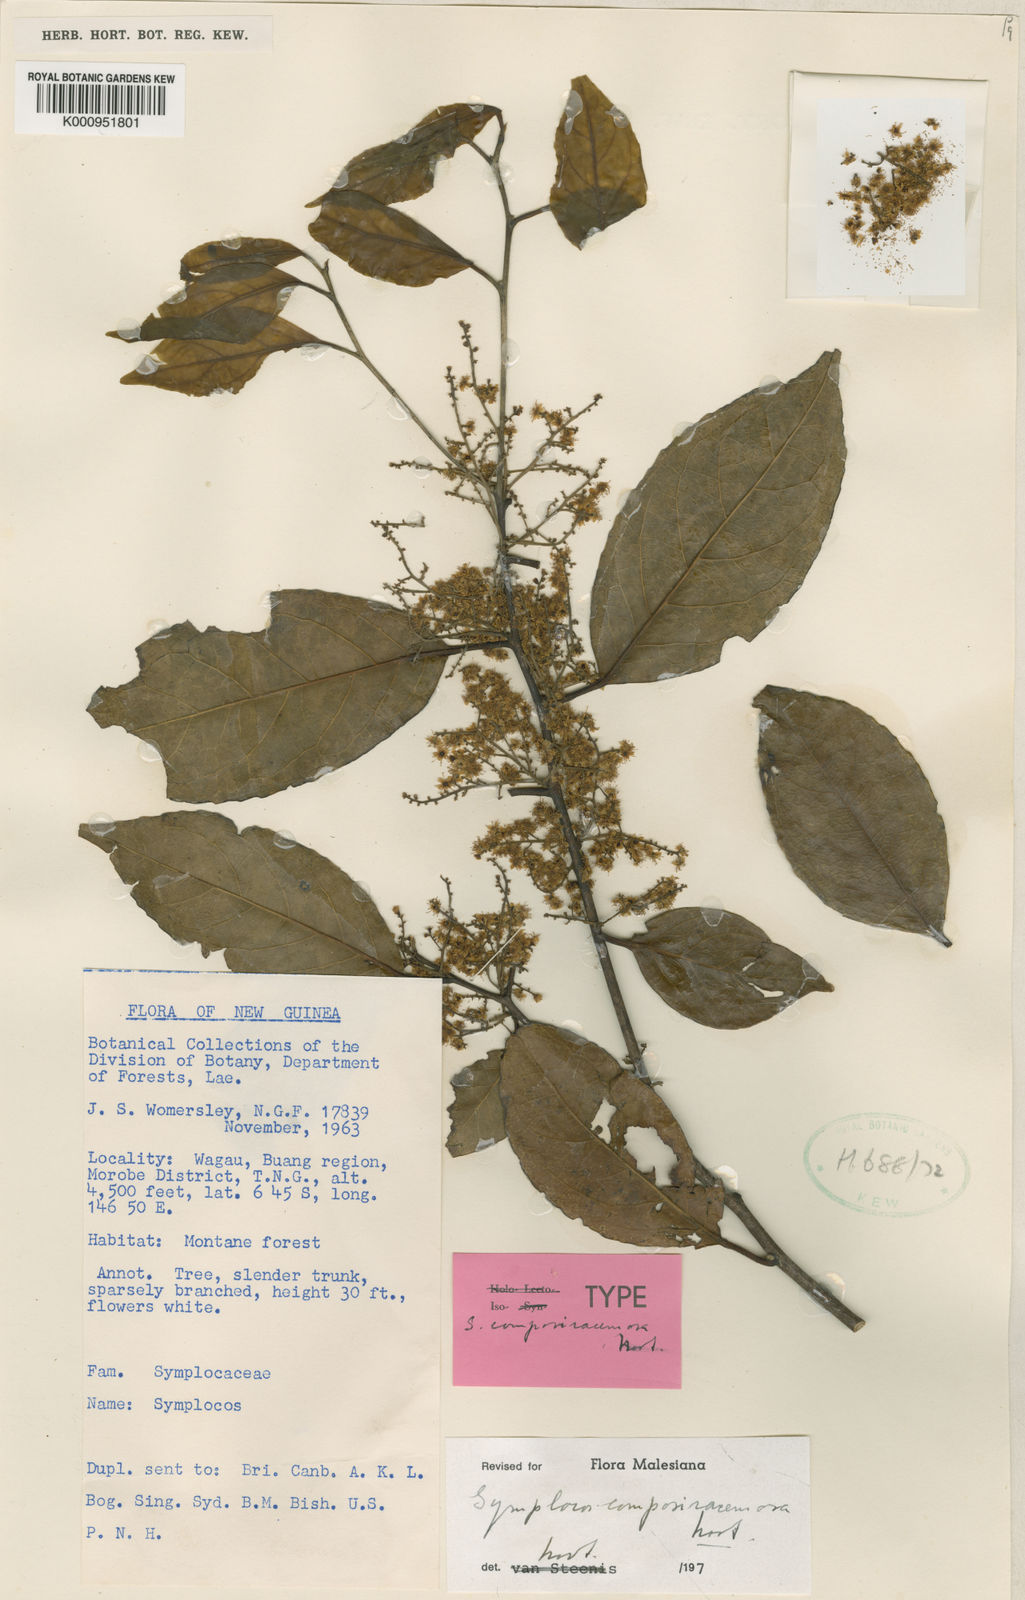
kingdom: Plantae
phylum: Tracheophyta
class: Magnoliopsida
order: Ericales
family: Symplocaceae
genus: Symplocos
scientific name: Symplocos composiracemosa
